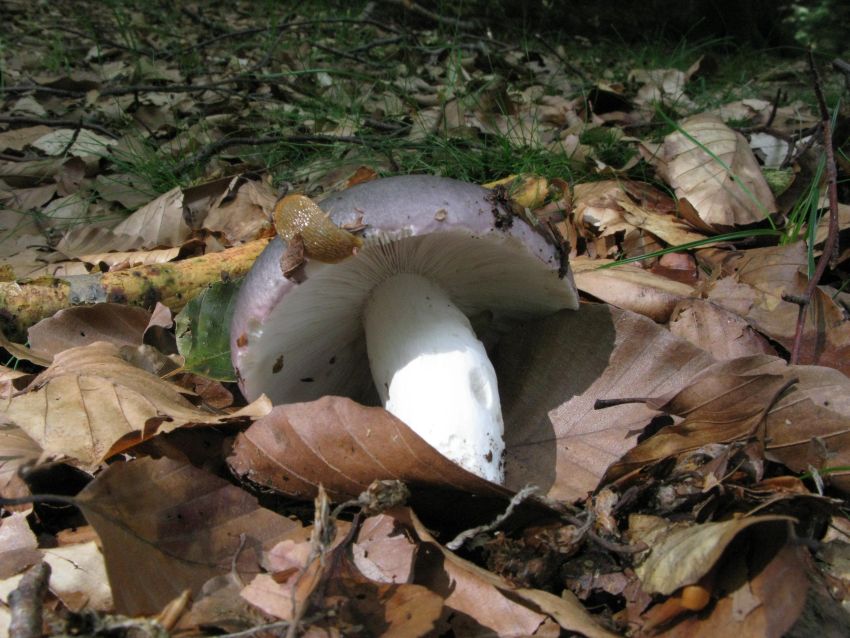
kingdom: Fungi
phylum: Basidiomycota
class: Agaricomycetes
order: Russulales
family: Russulaceae
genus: Russula
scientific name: Russula cyanoxantha
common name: broget skørhat
